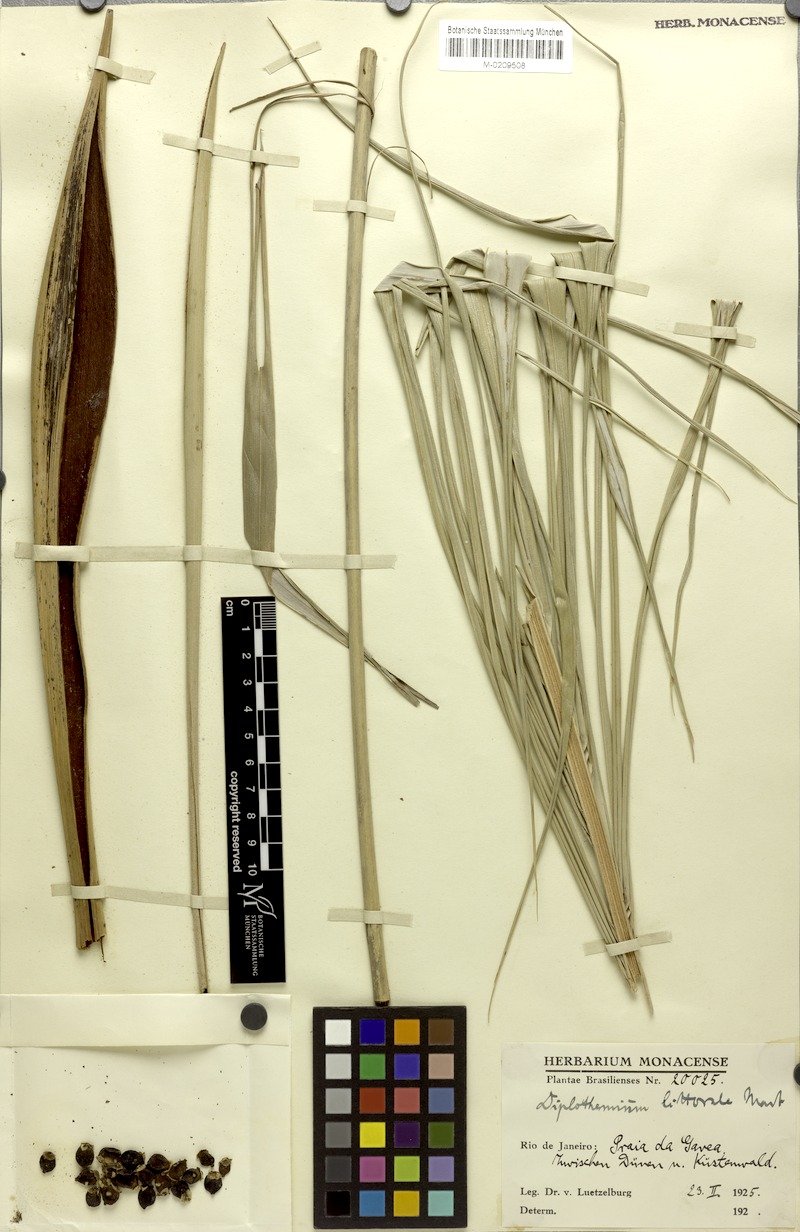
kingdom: Plantae
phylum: Tracheophyta
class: Liliopsida
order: Arecales
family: Arecaceae
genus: Allagoptera
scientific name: Allagoptera arenaria
